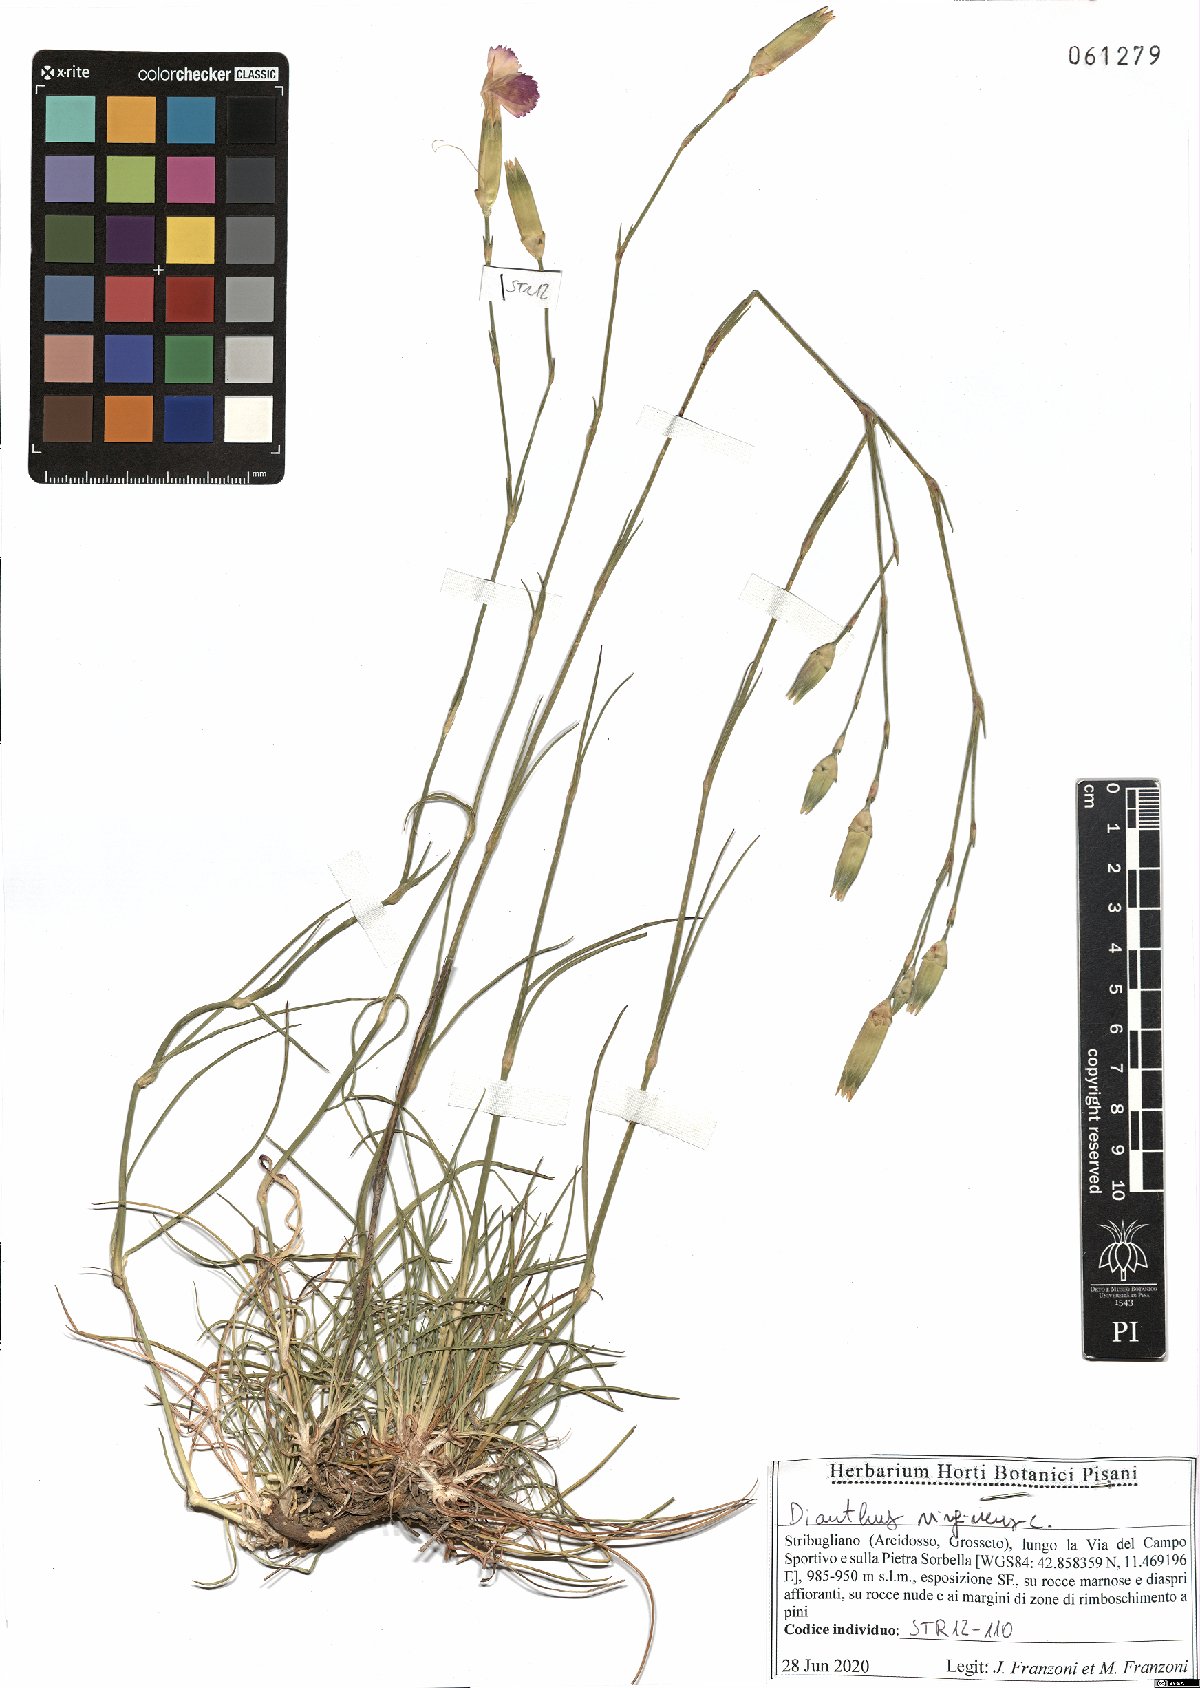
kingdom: Plantae
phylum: Tracheophyta
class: Magnoliopsida
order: Caryophyllales
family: Caryophyllaceae
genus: Dianthus
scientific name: Dianthus virgineus
